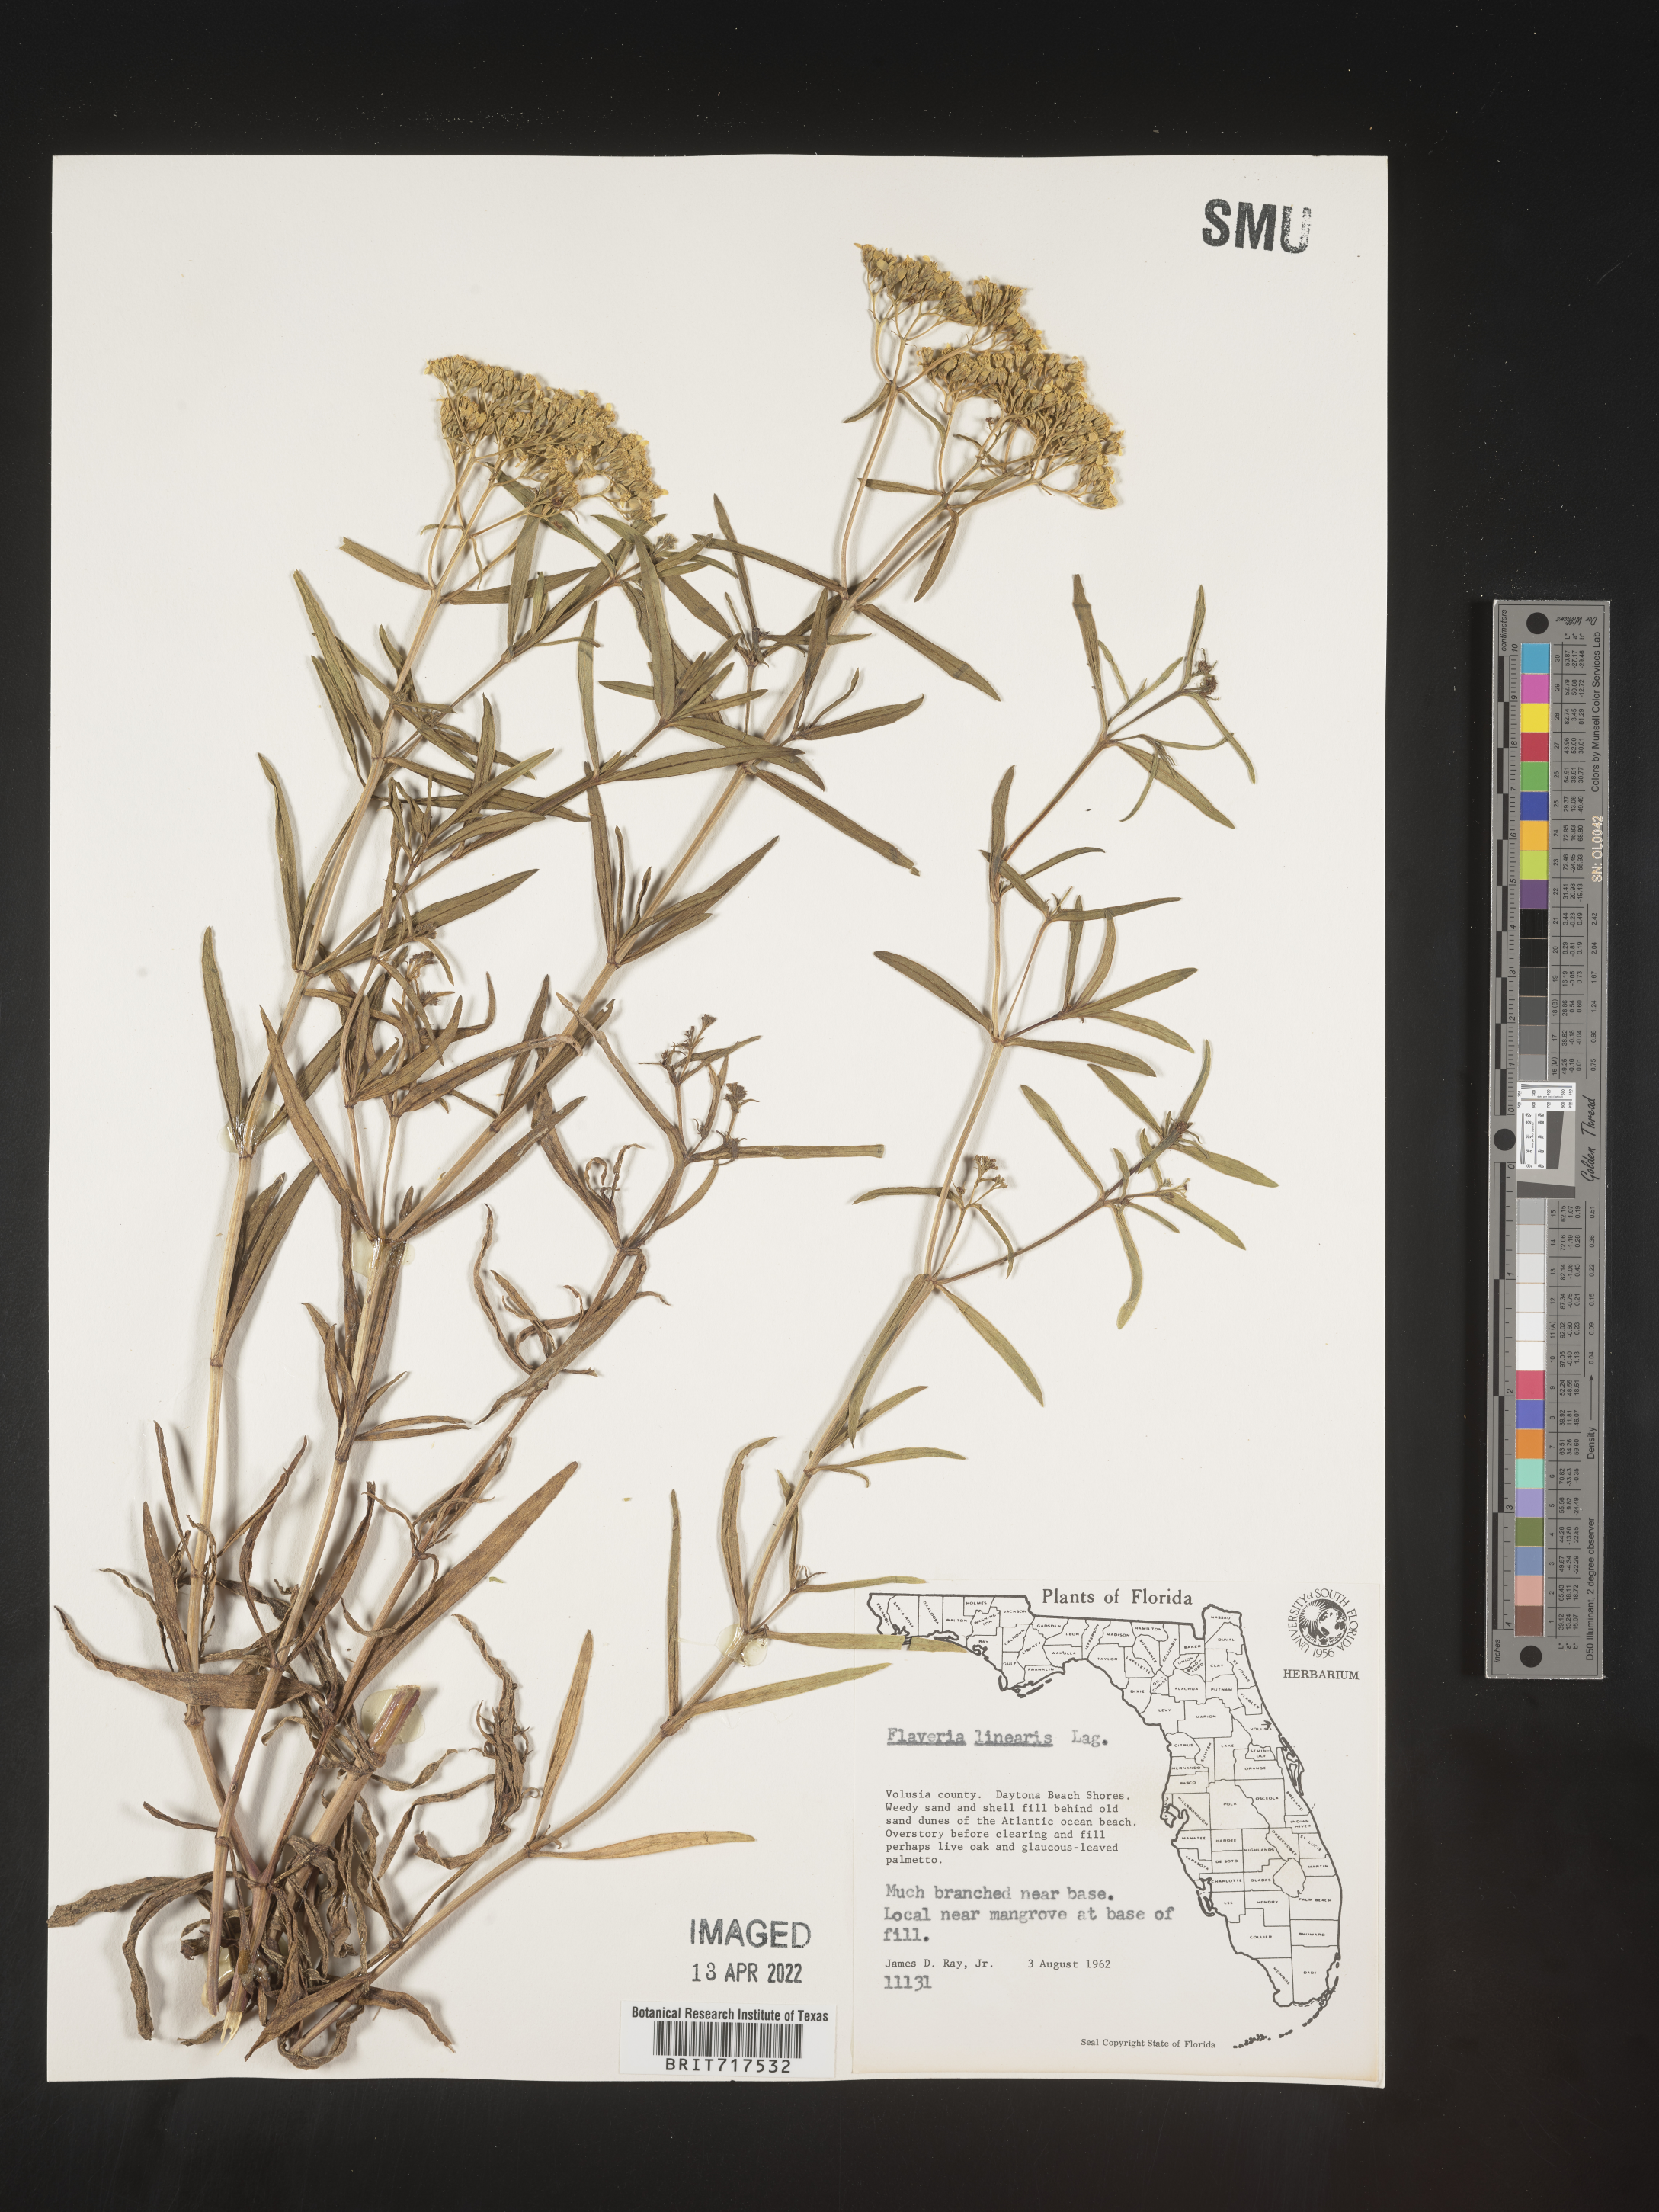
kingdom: Plantae
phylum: Tracheophyta
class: Magnoliopsida
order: Asterales
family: Asteraceae
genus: Flaveria
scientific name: Flaveria linearis
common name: Yellowtop
